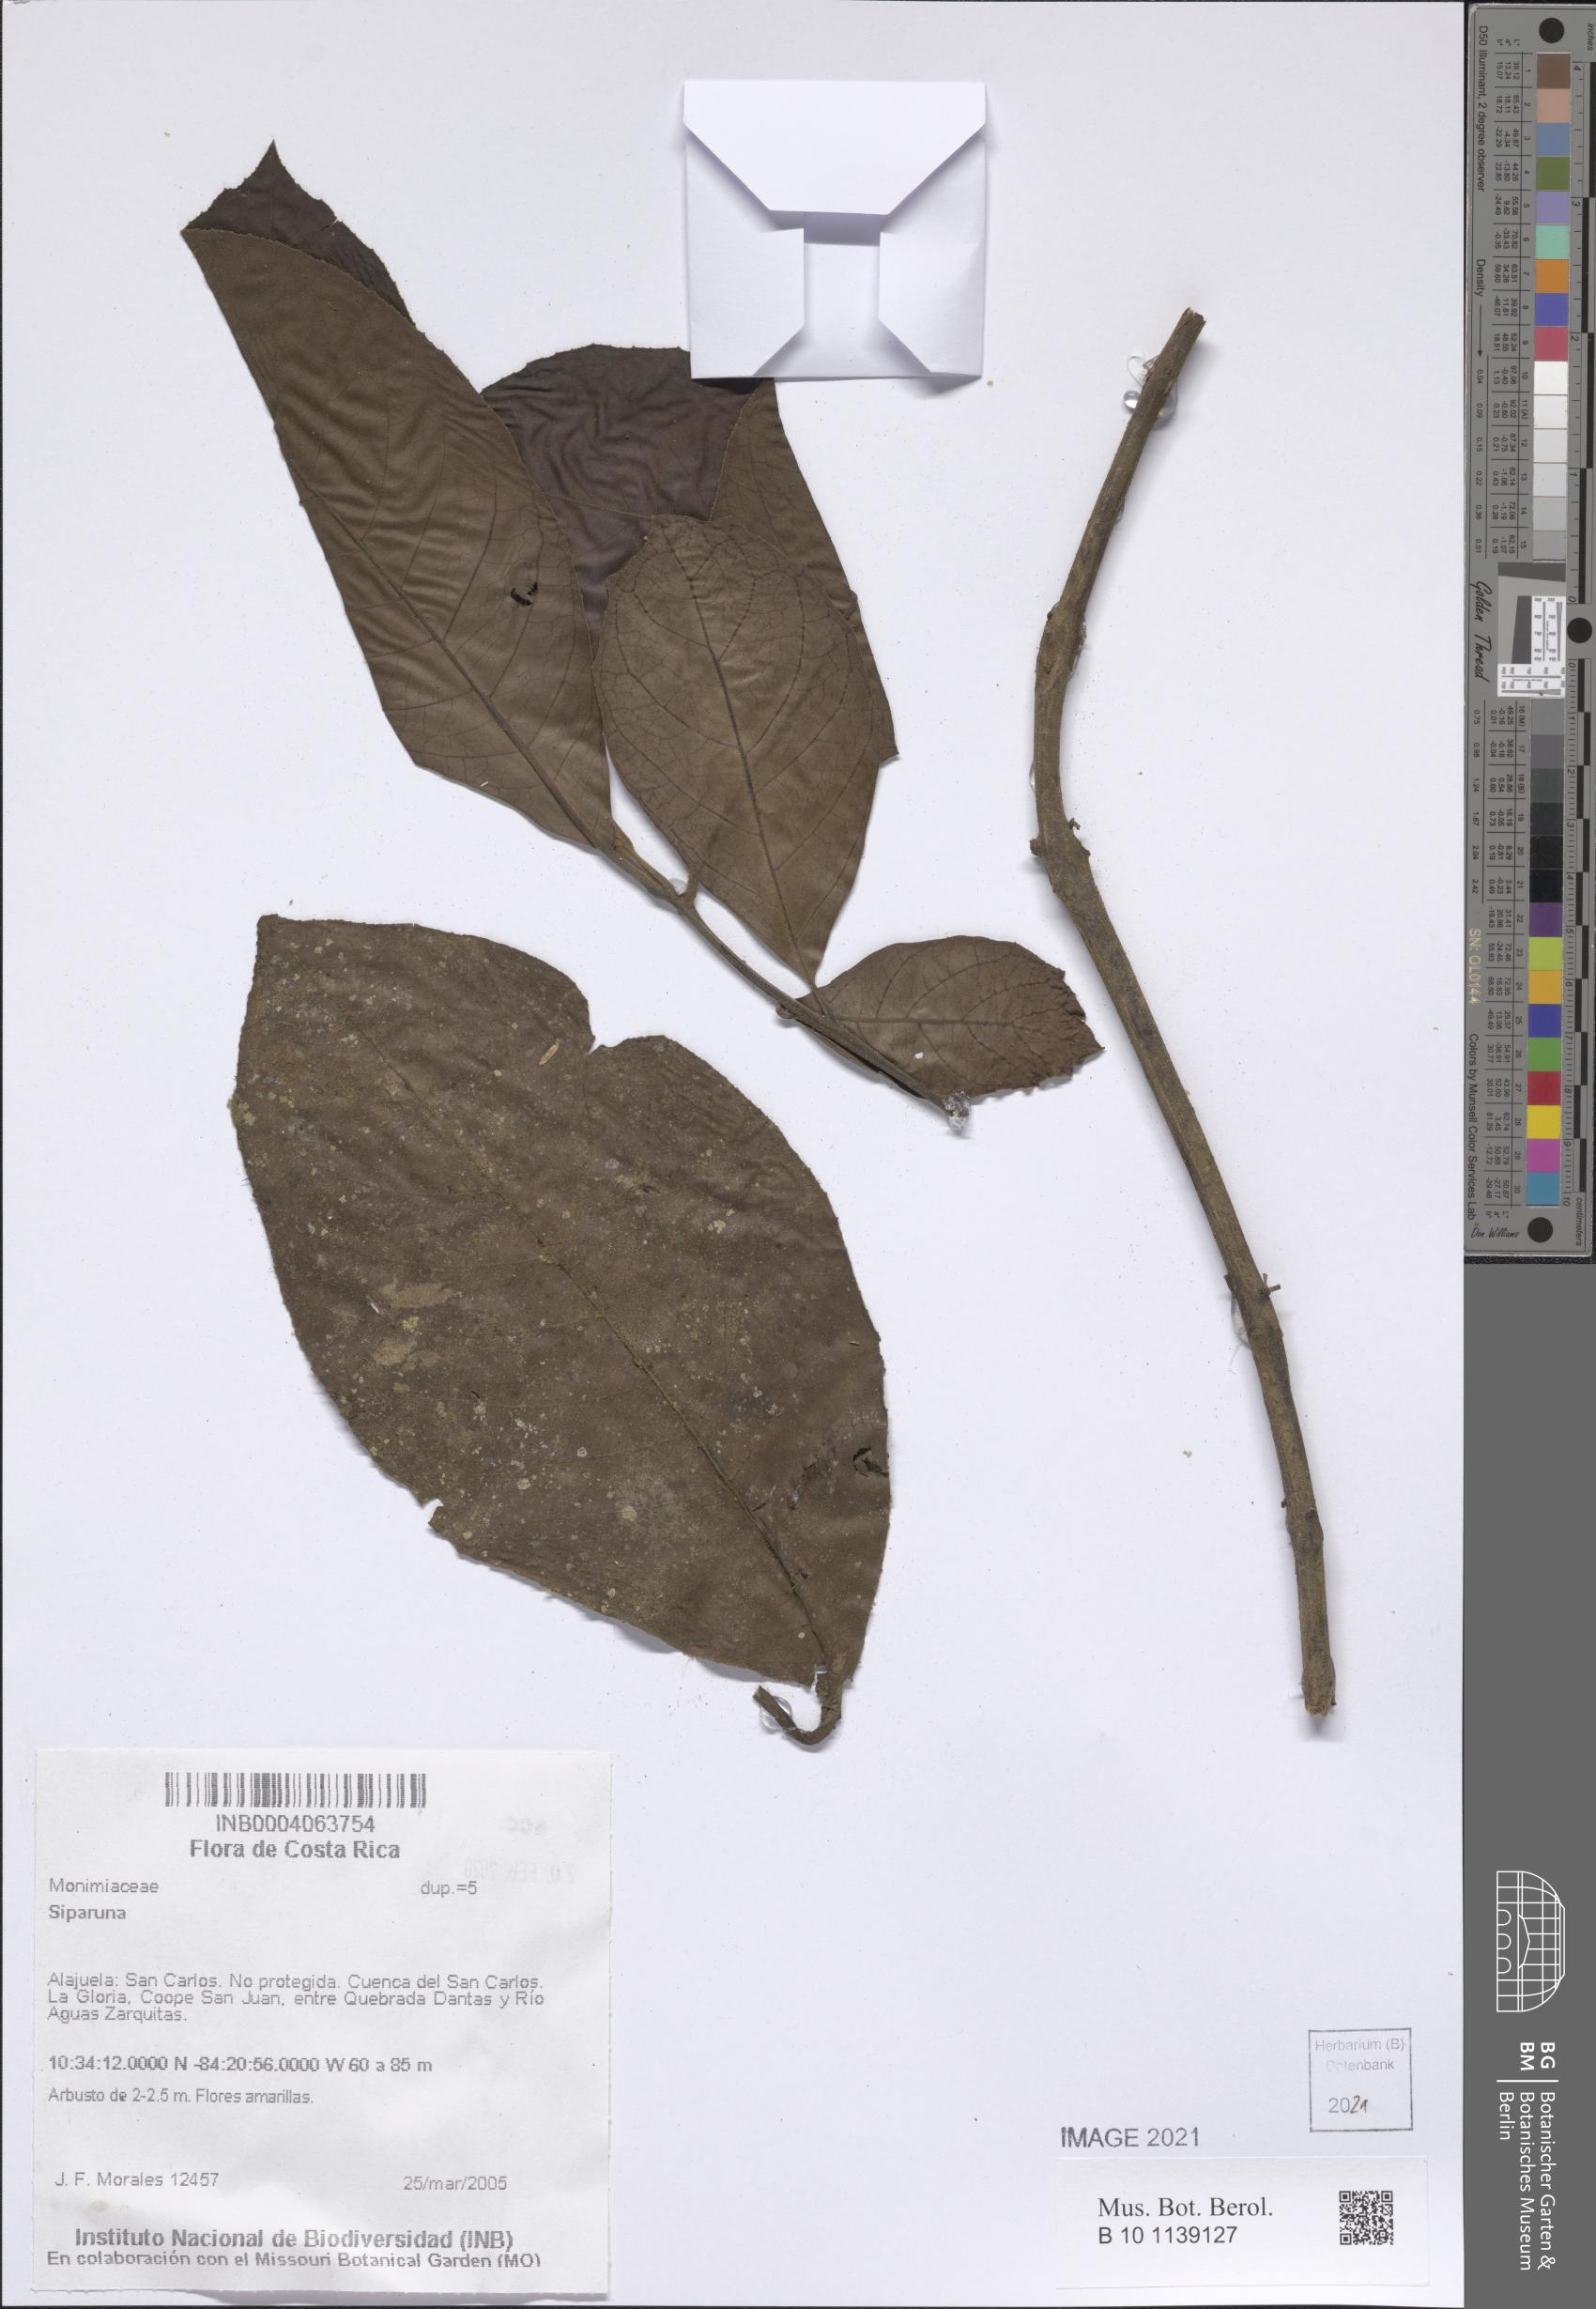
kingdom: Plantae
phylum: Tracheophyta
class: Magnoliopsida
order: Laurales
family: Siparunaceae
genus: Siparuna
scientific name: Siparuna
